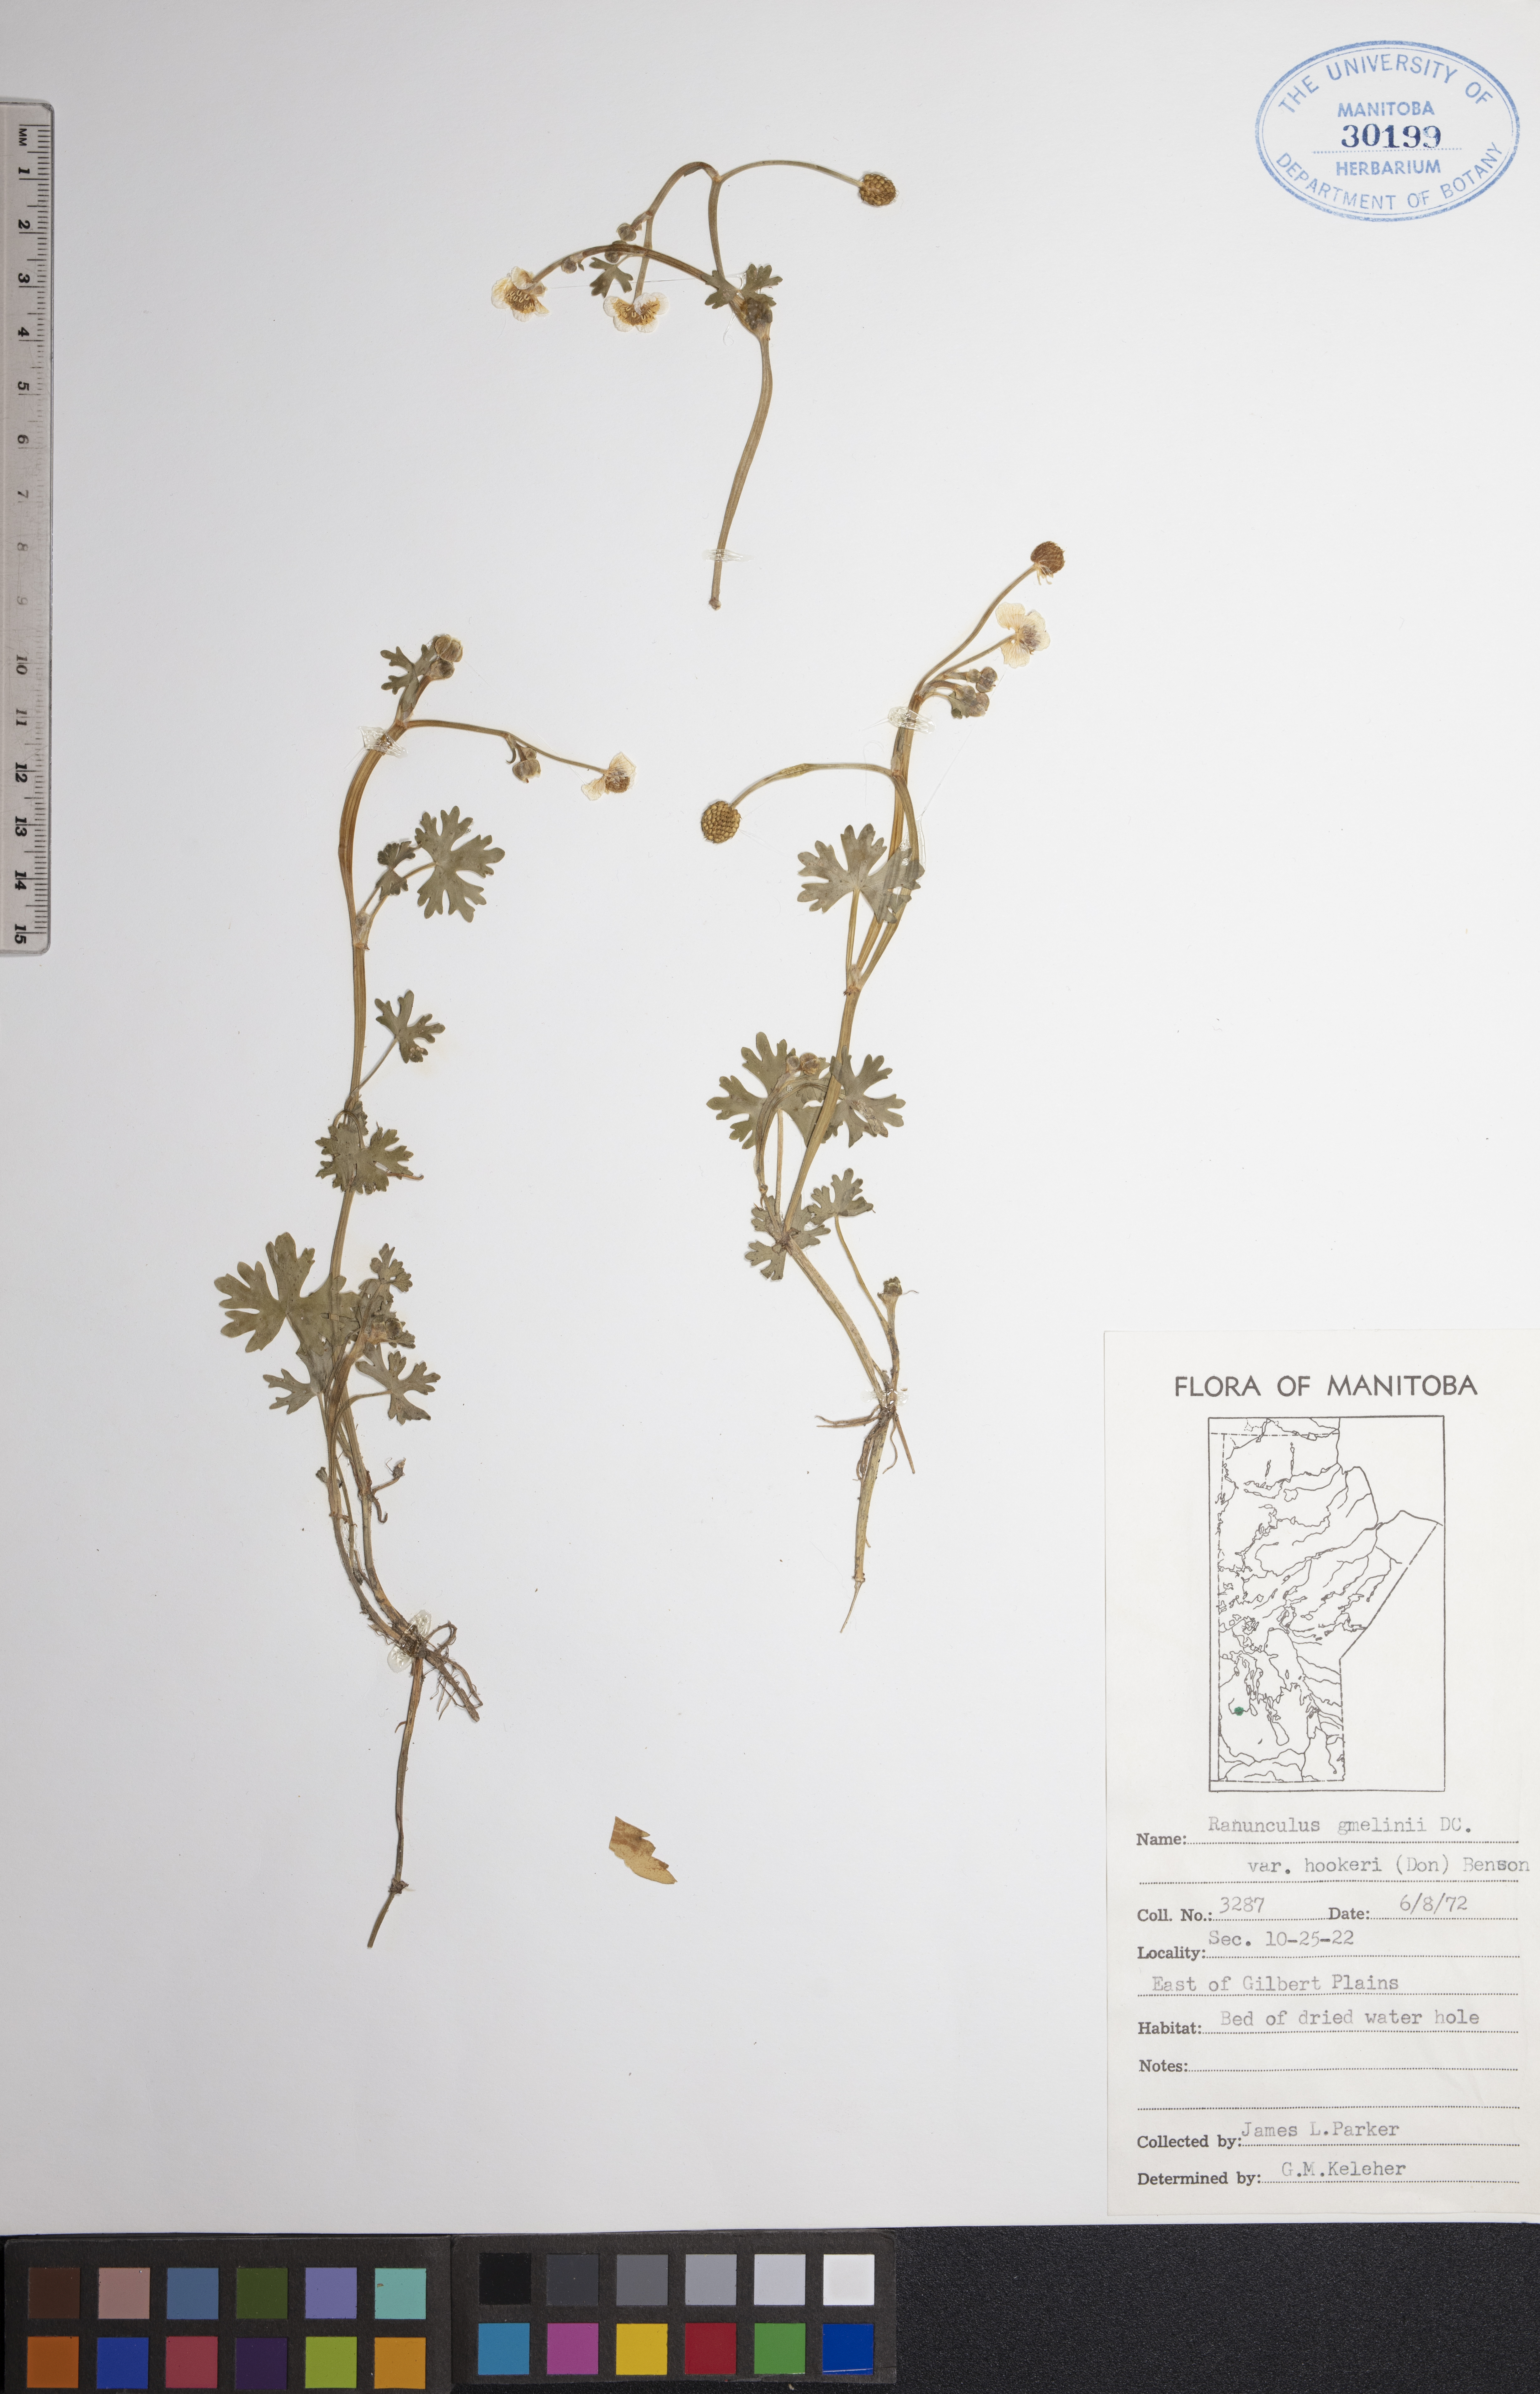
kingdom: Plantae
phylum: Tracheophyta
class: Magnoliopsida
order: Ranunculales
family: Ranunculaceae
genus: Ranunculus
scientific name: Ranunculus gmelinii
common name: Gmelin's buttercup
